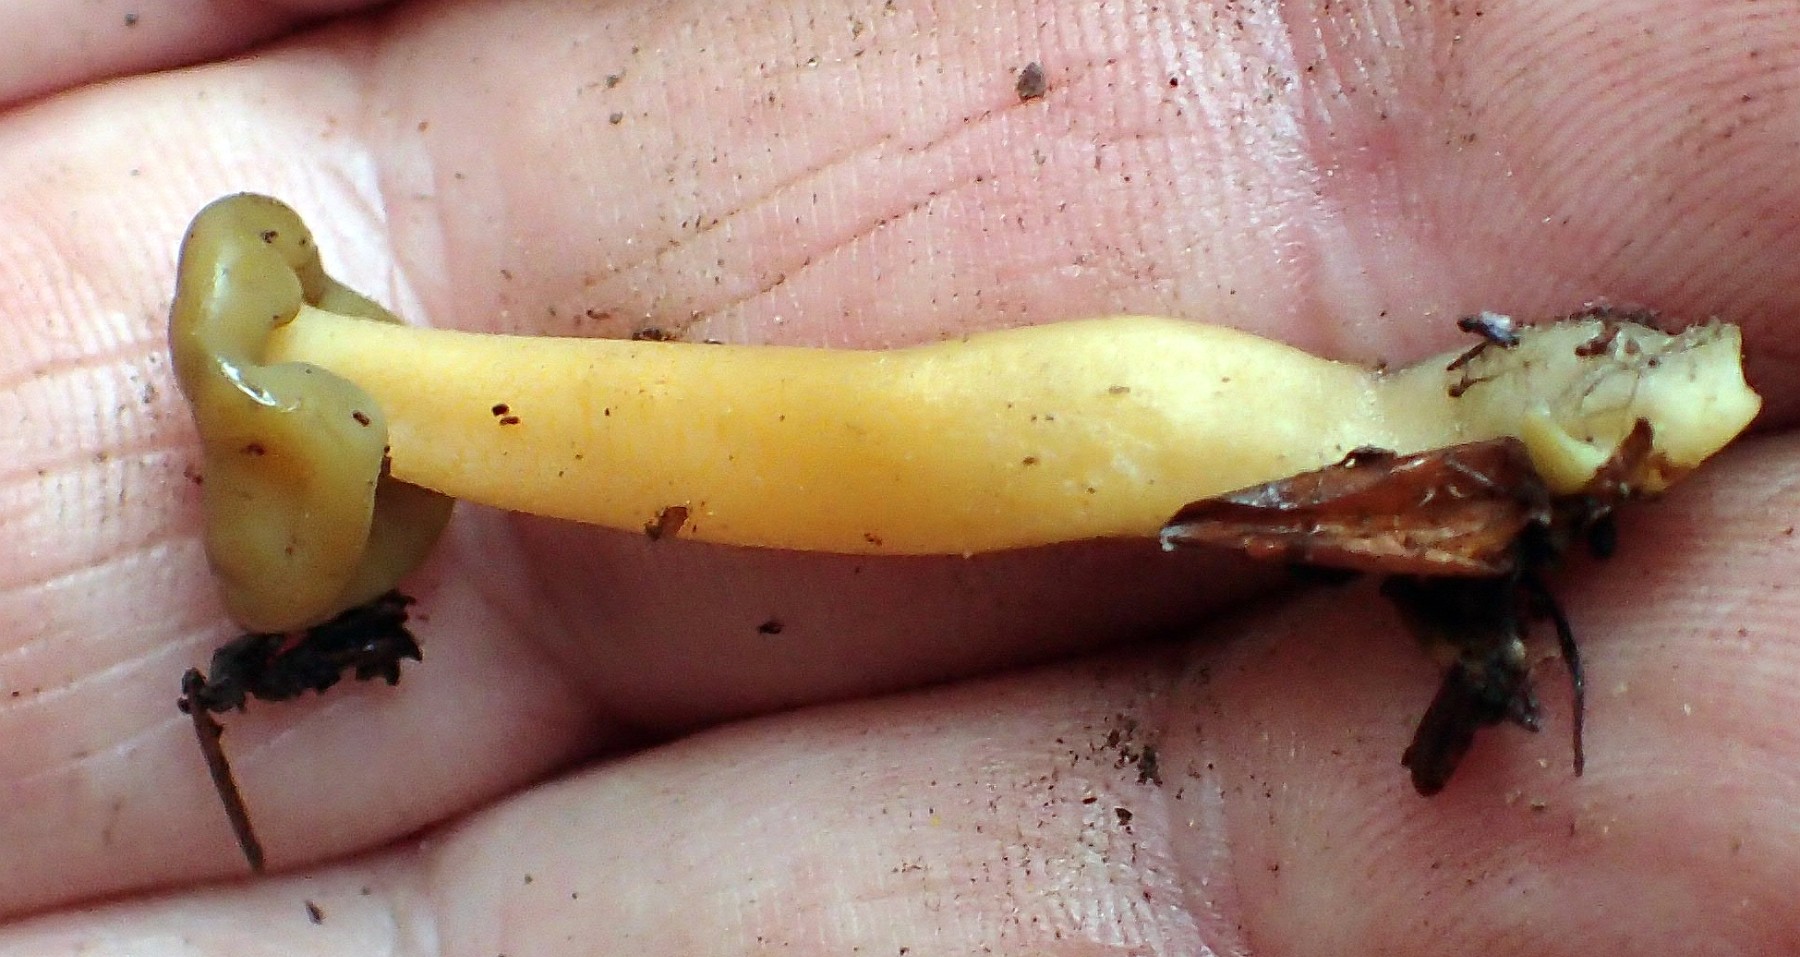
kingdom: Fungi
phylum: Ascomycota
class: Leotiomycetes
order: Leotiales
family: Leotiaceae
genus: Leotia
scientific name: Leotia lubrica
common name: ravsvamp
